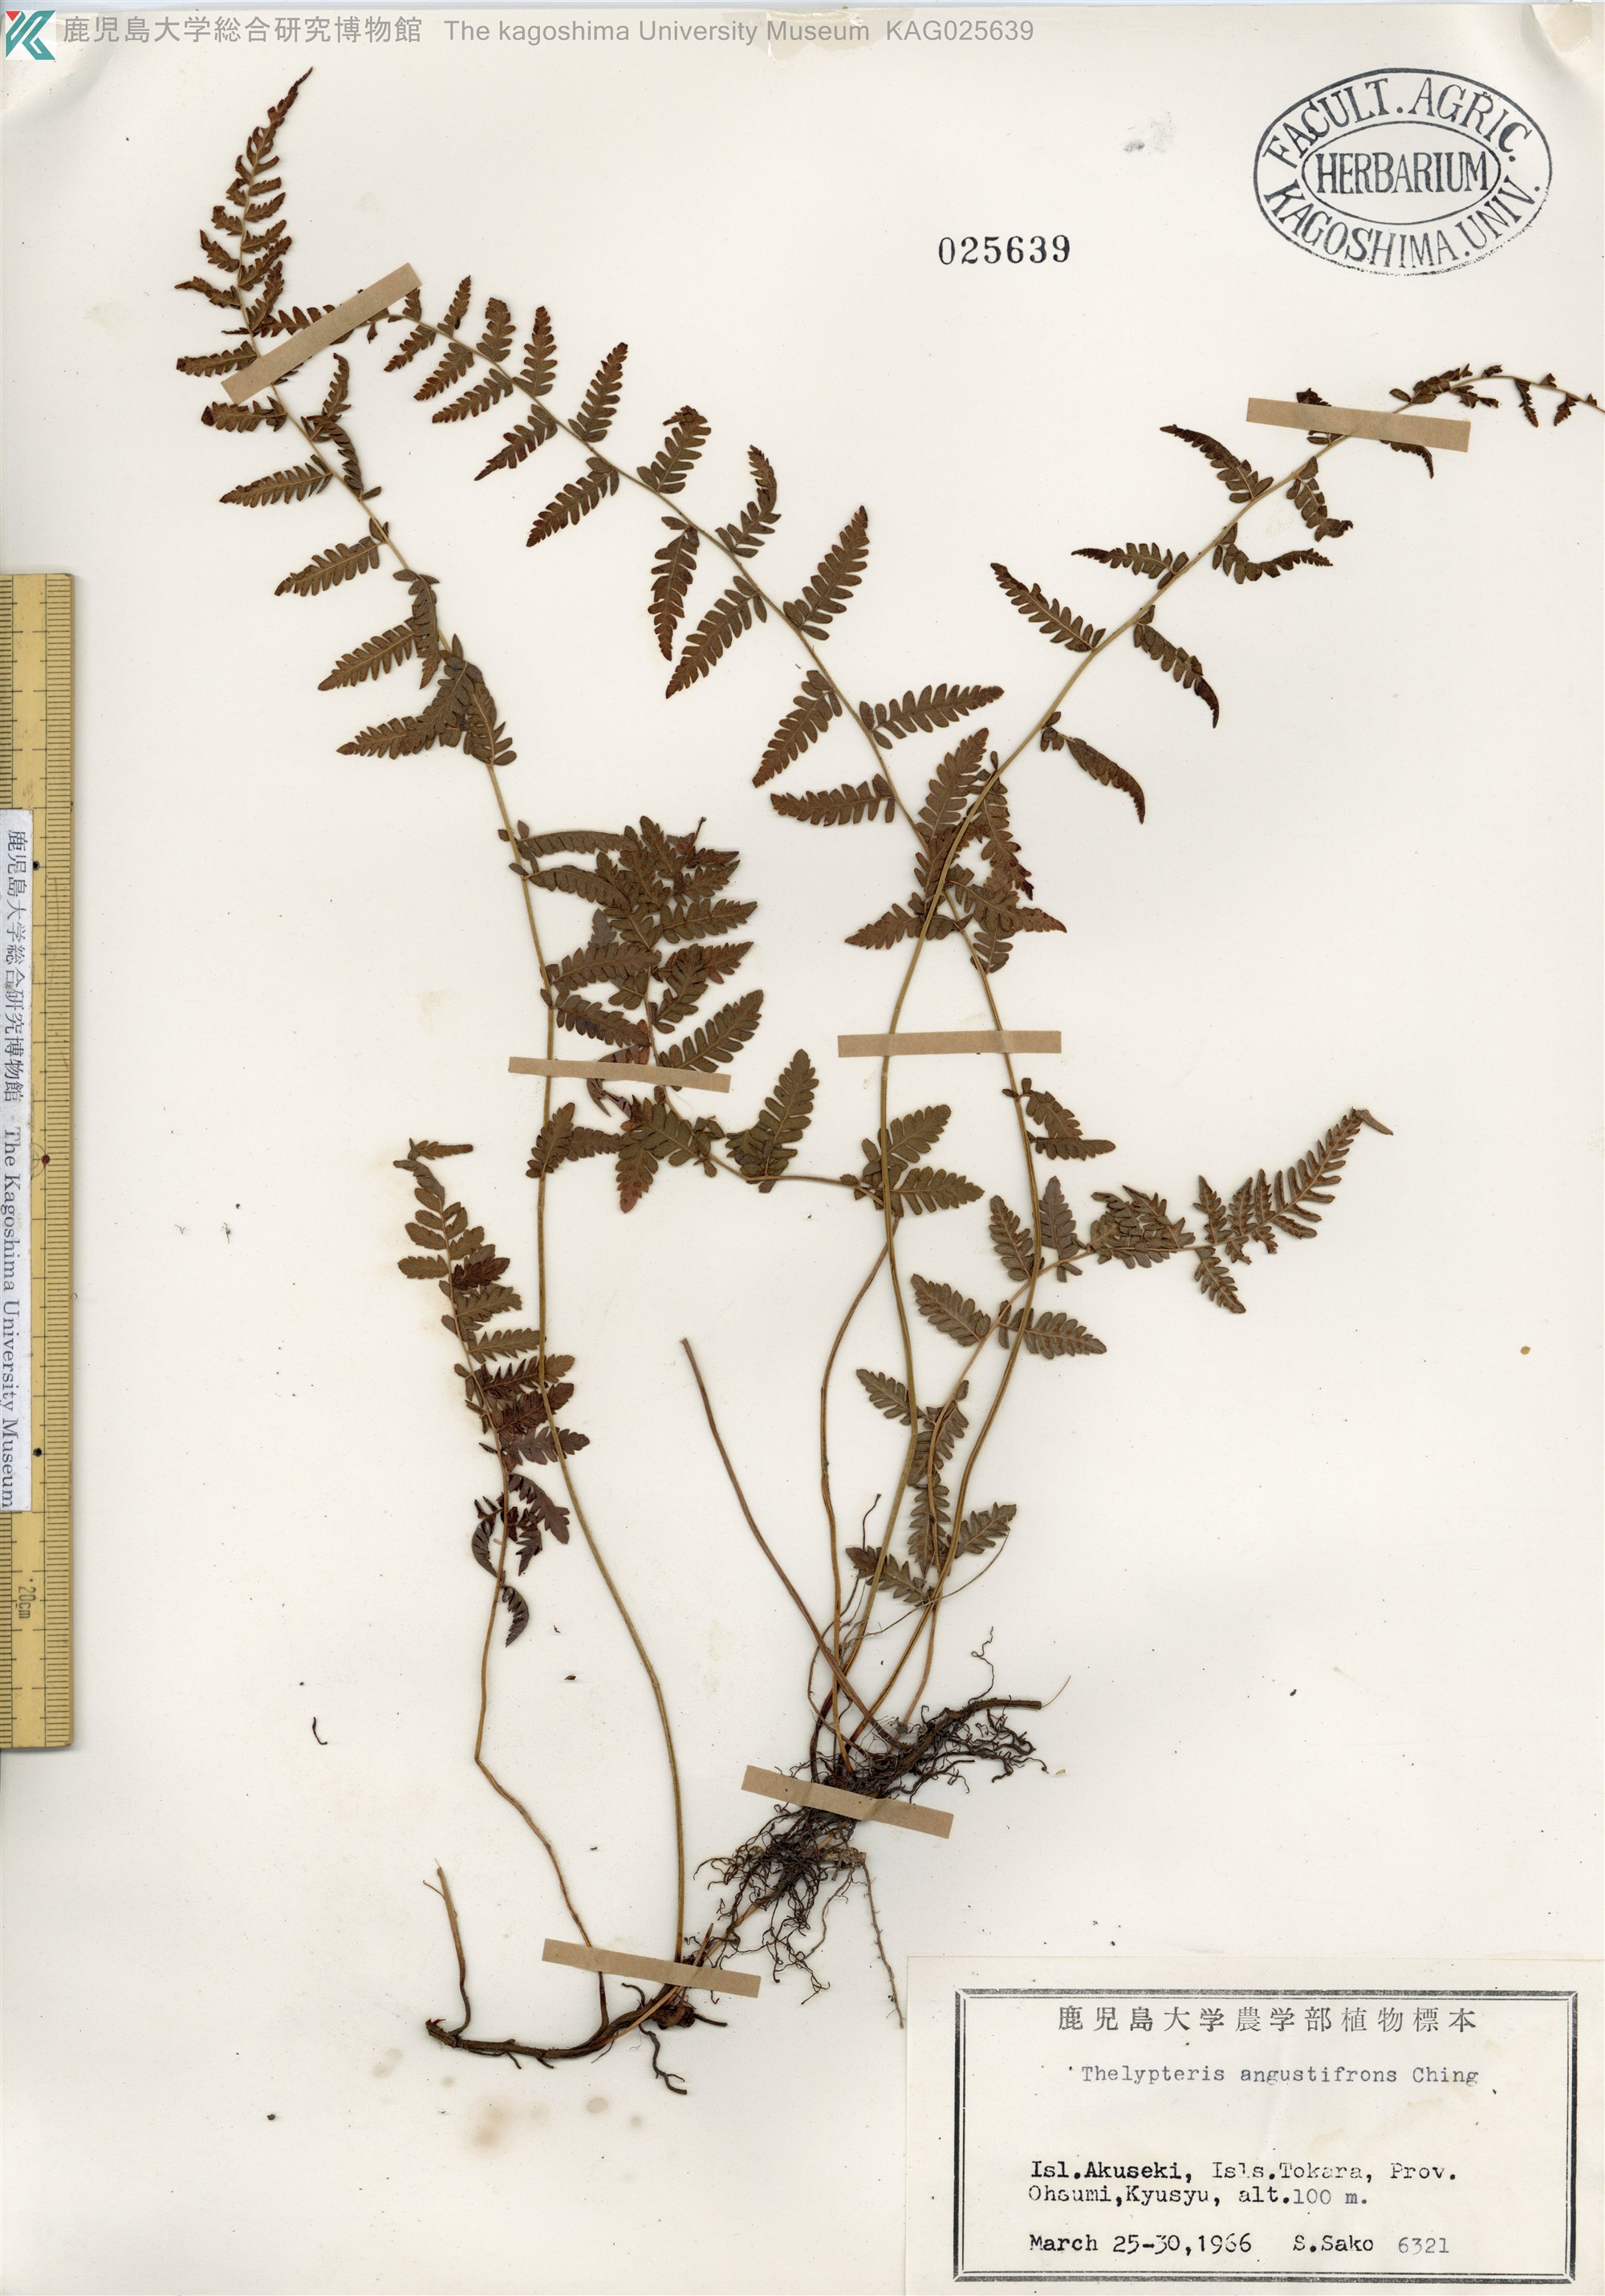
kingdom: Plantae
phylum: Tracheophyta
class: Polypodiopsida
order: Polypodiales
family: Thelypteridaceae
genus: Amauropelta
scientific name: Amauropelta angustifrons
